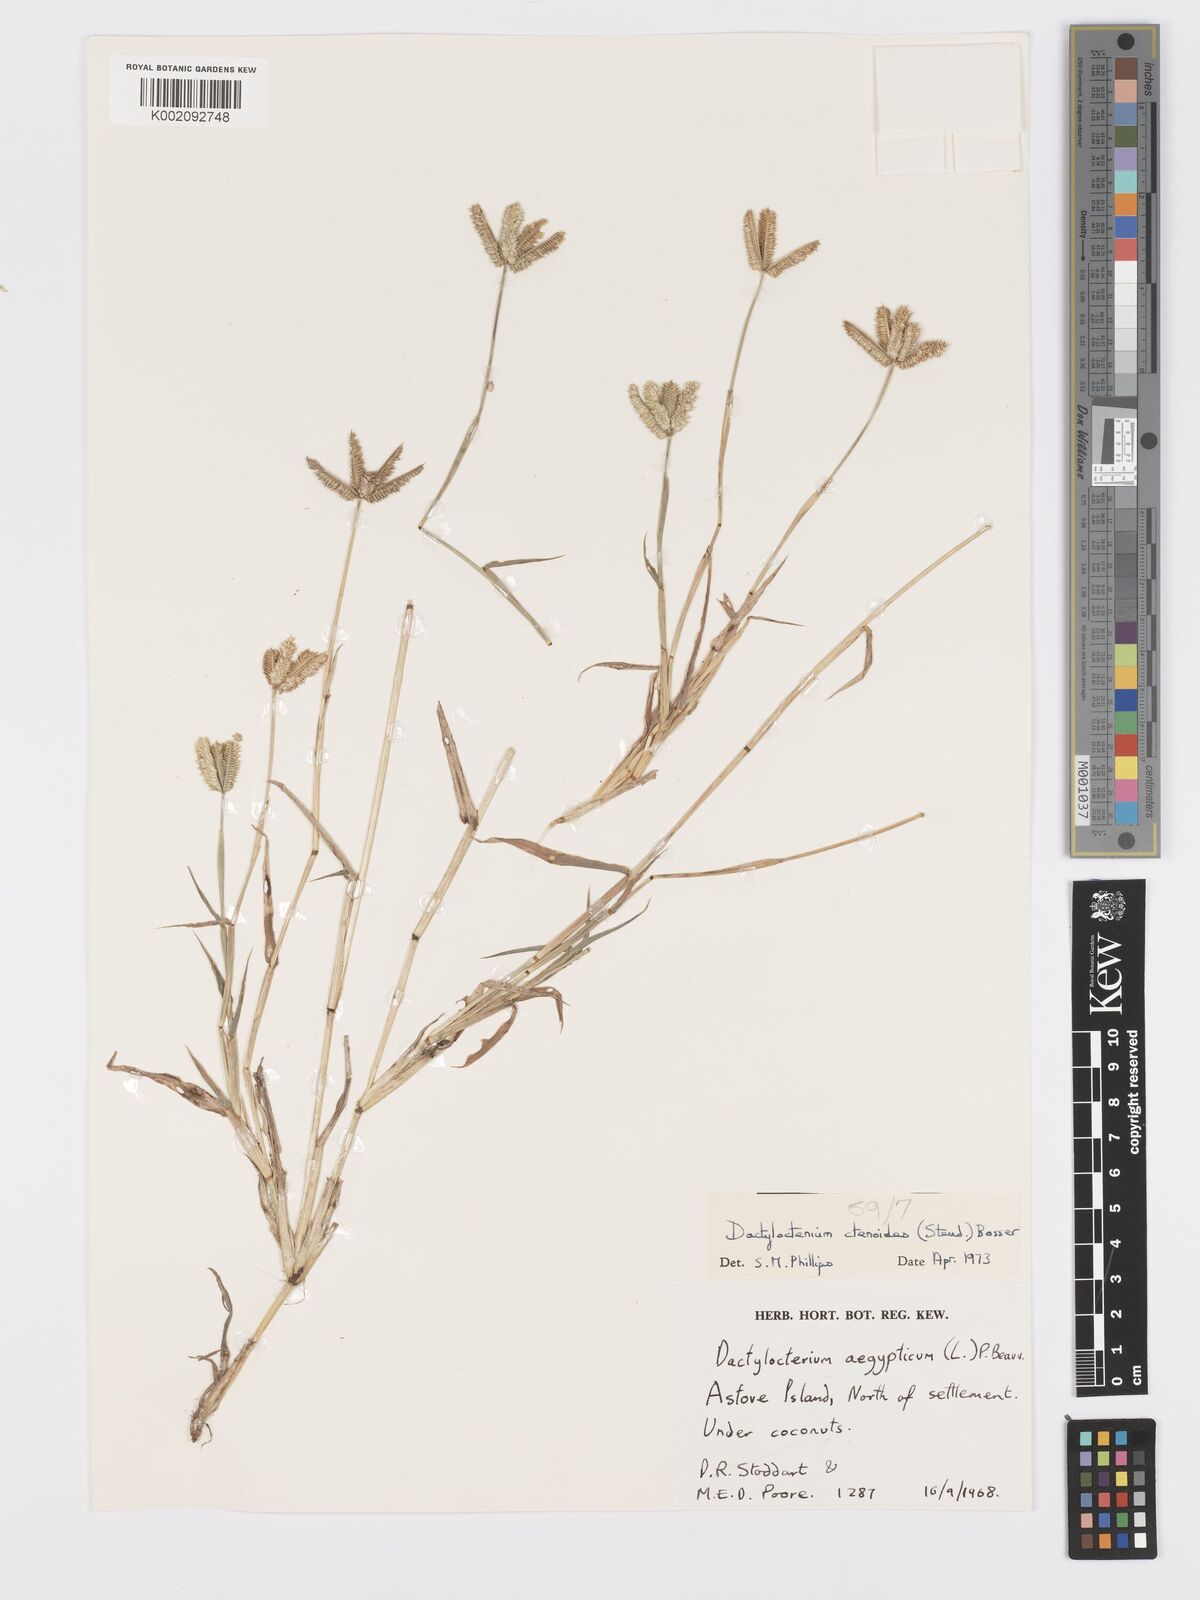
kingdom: Plantae
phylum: Tracheophyta
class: Liliopsida
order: Poales
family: Poaceae
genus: Dactyloctenium
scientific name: Dactyloctenium ctenoides
